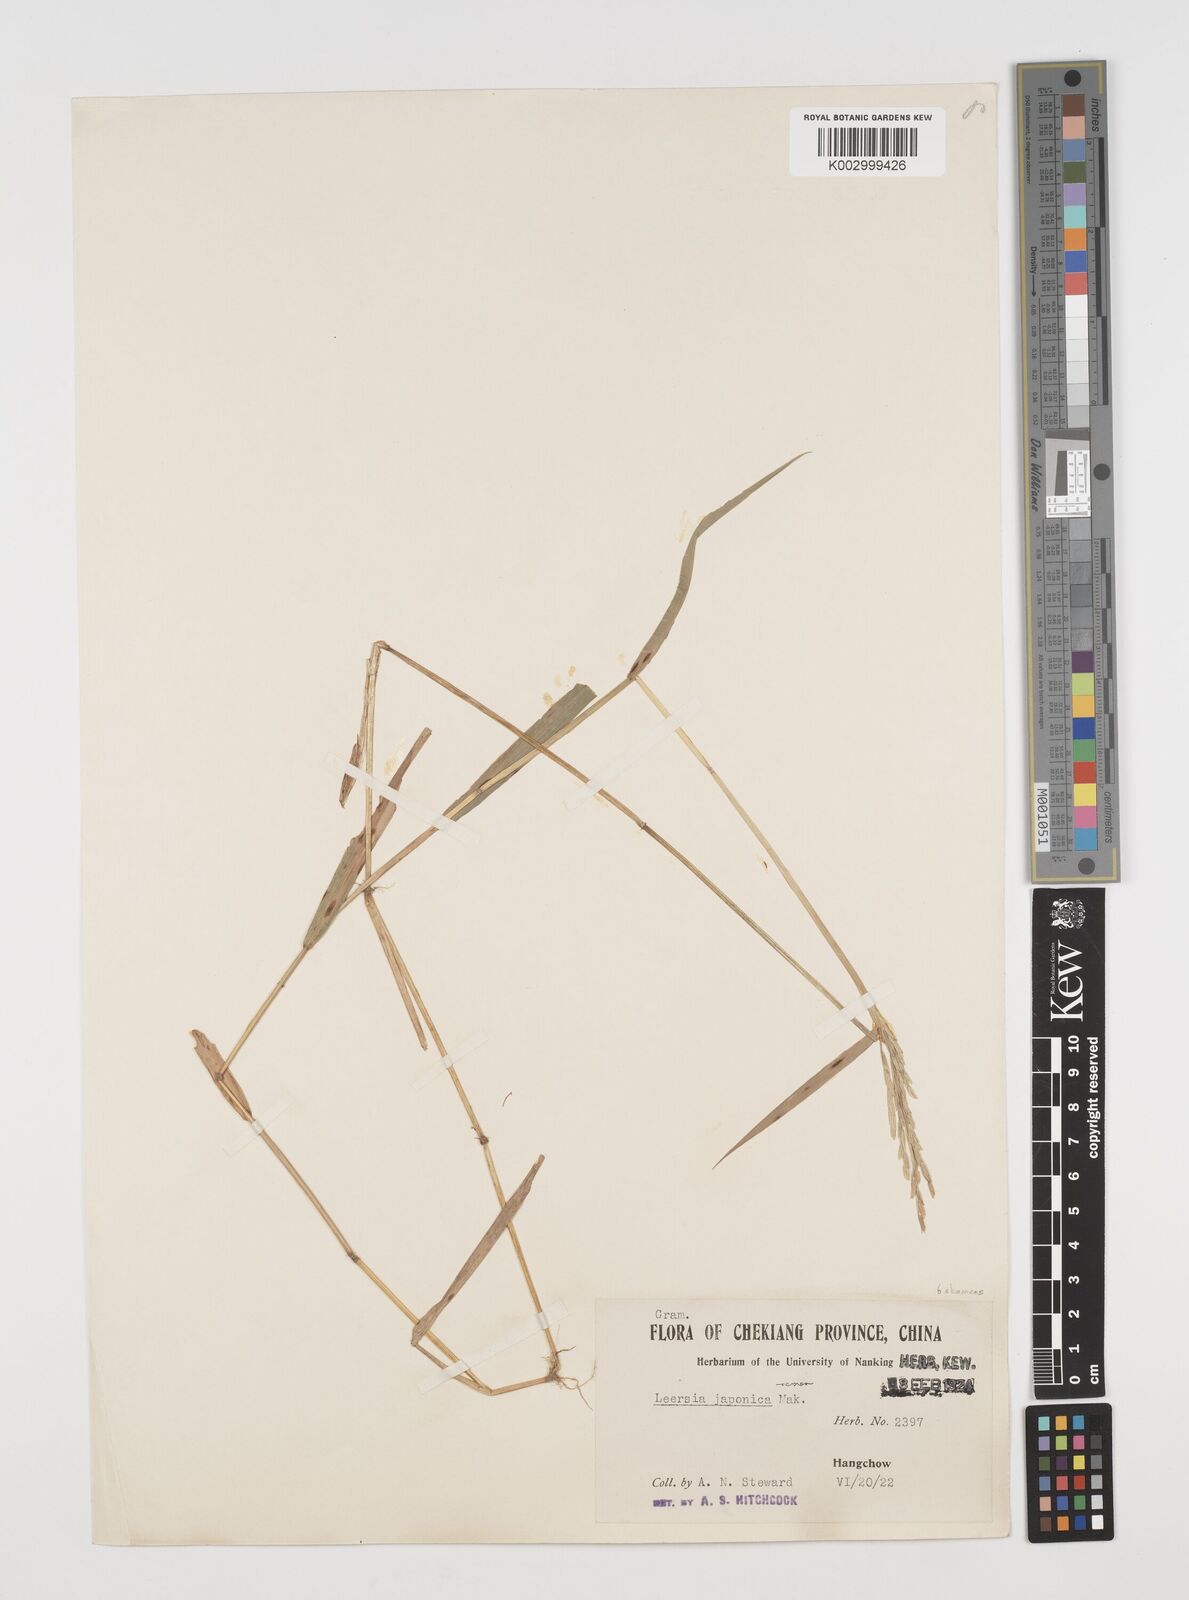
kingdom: Plantae
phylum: Tracheophyta
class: Liliopsida
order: Poales
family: Poaceae
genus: Leersia
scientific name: Leersia japonica
